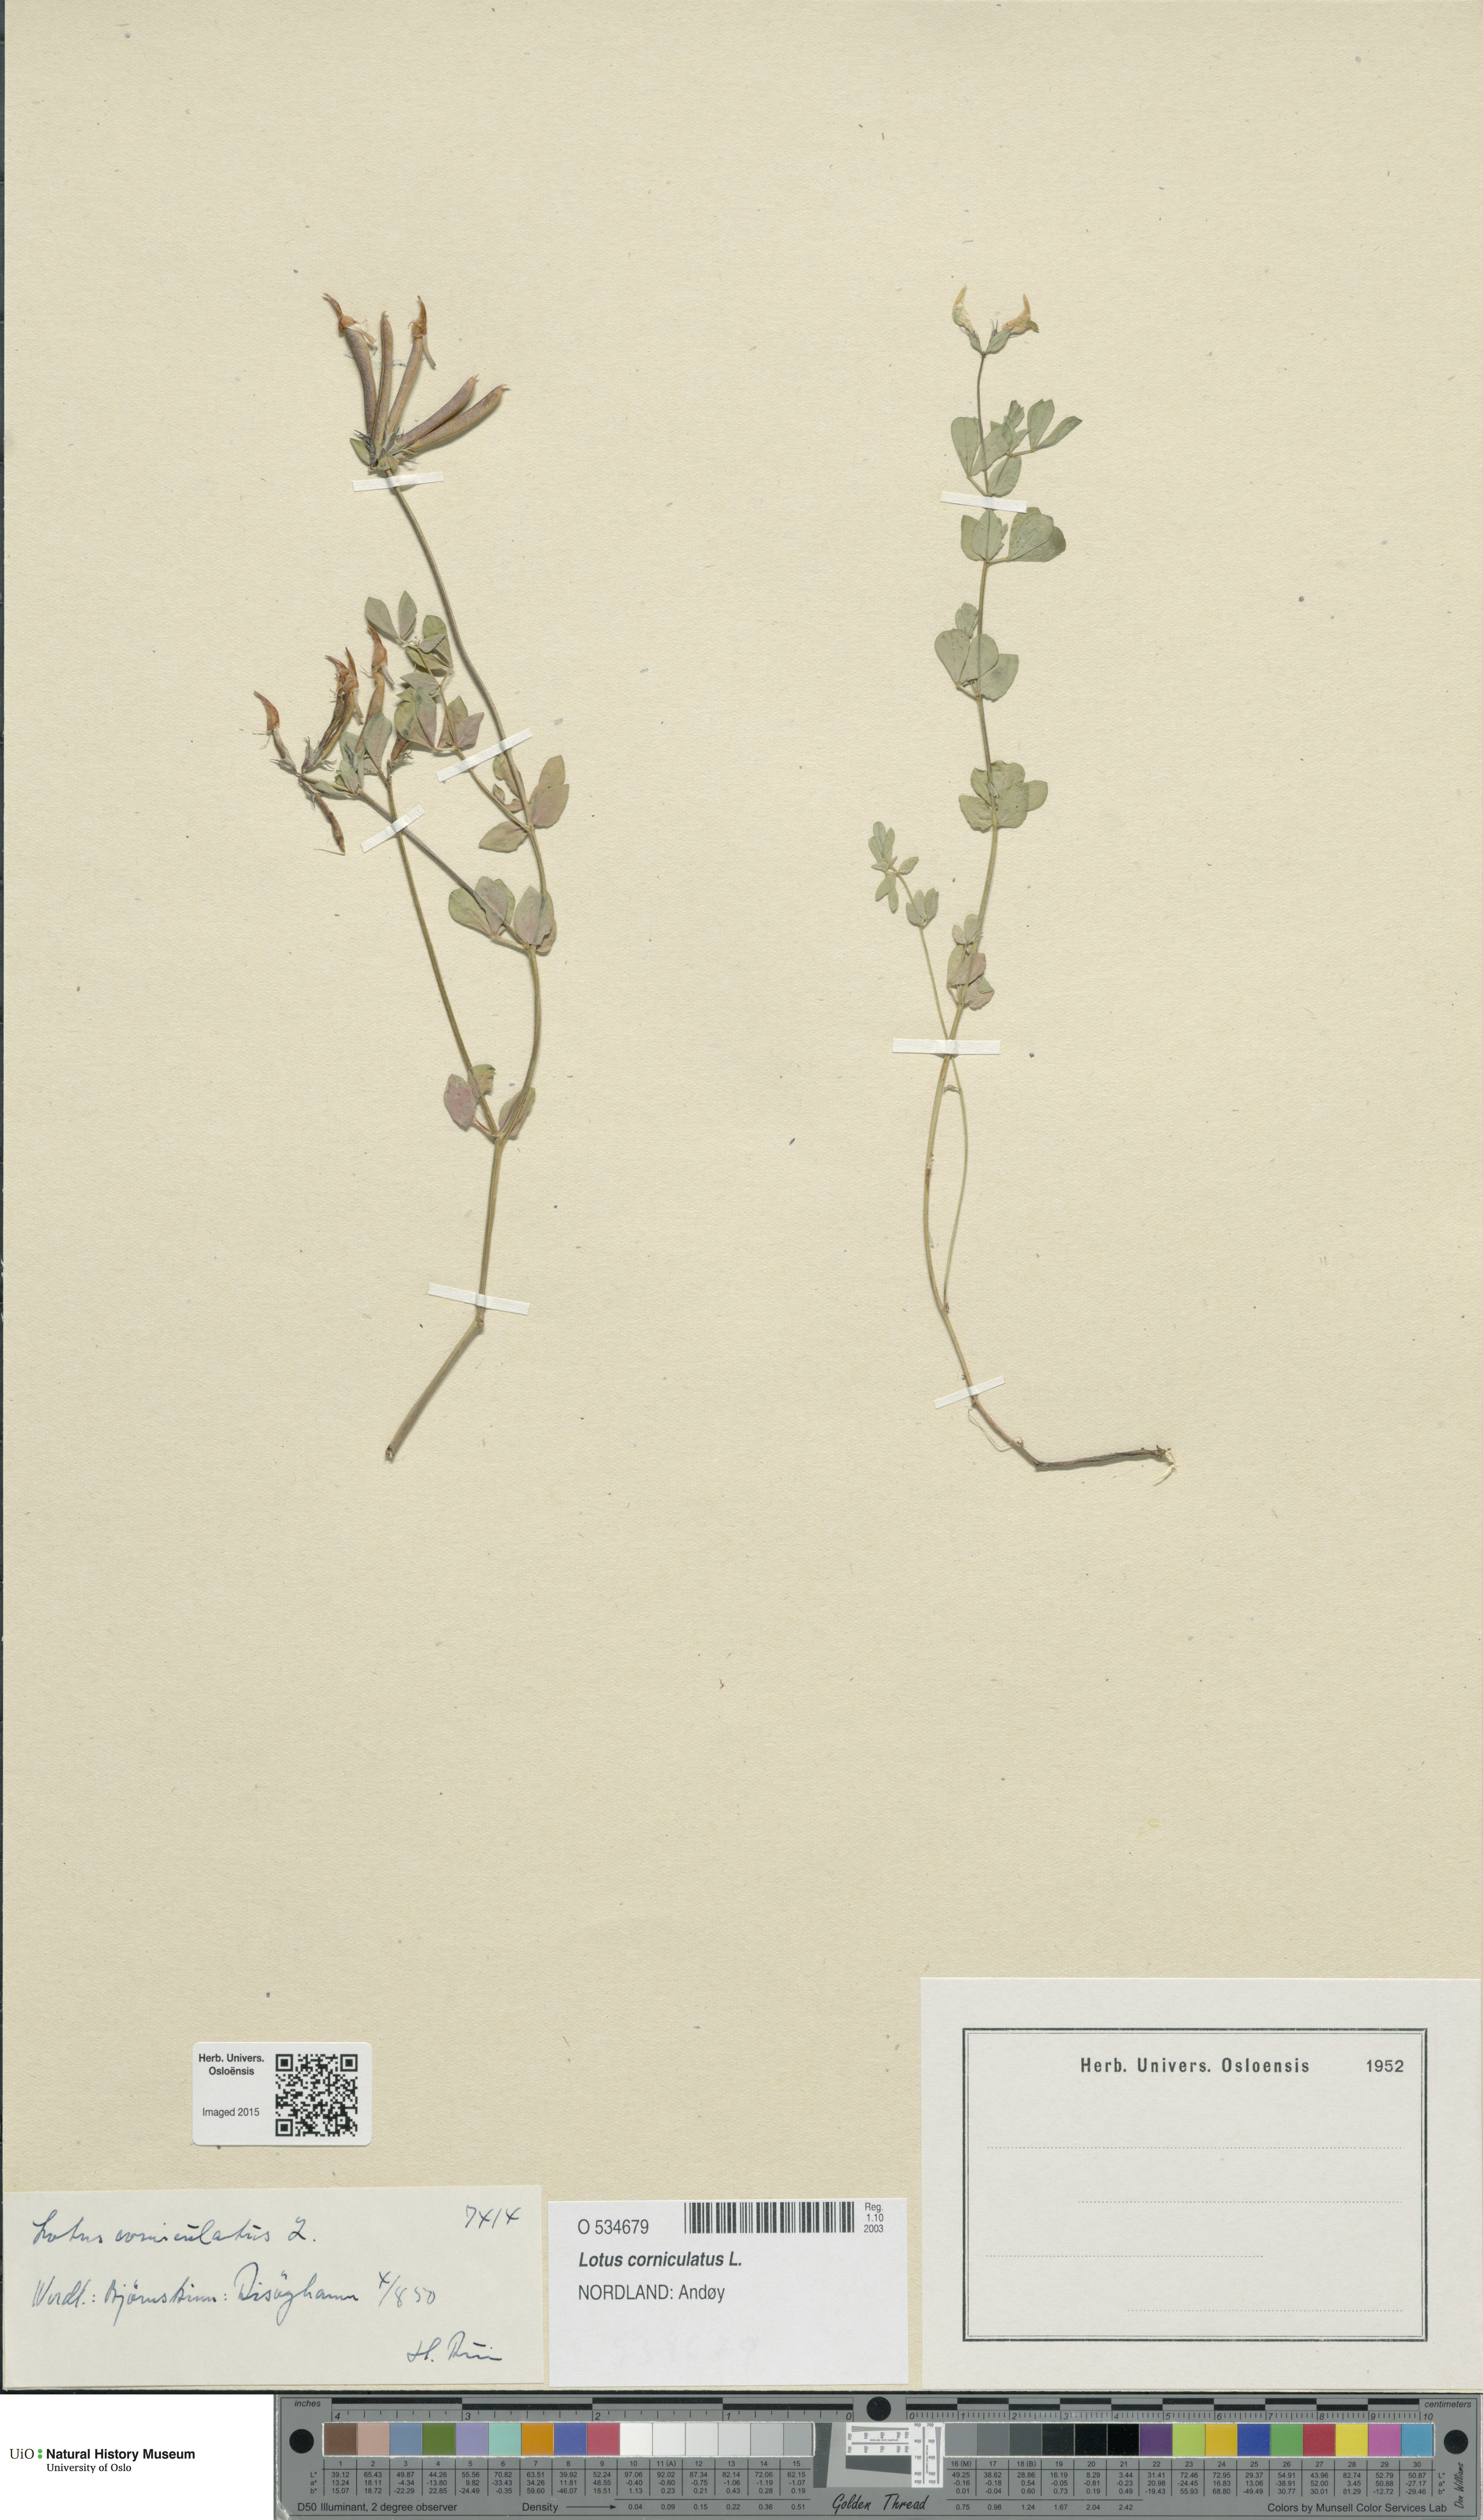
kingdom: Plantae
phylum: Tracheophyta
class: Magnoliopsida
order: Fabales
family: Fabaceae
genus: Lotus
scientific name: Lotus corniculatus
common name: Common bird's-foot-trefoil
